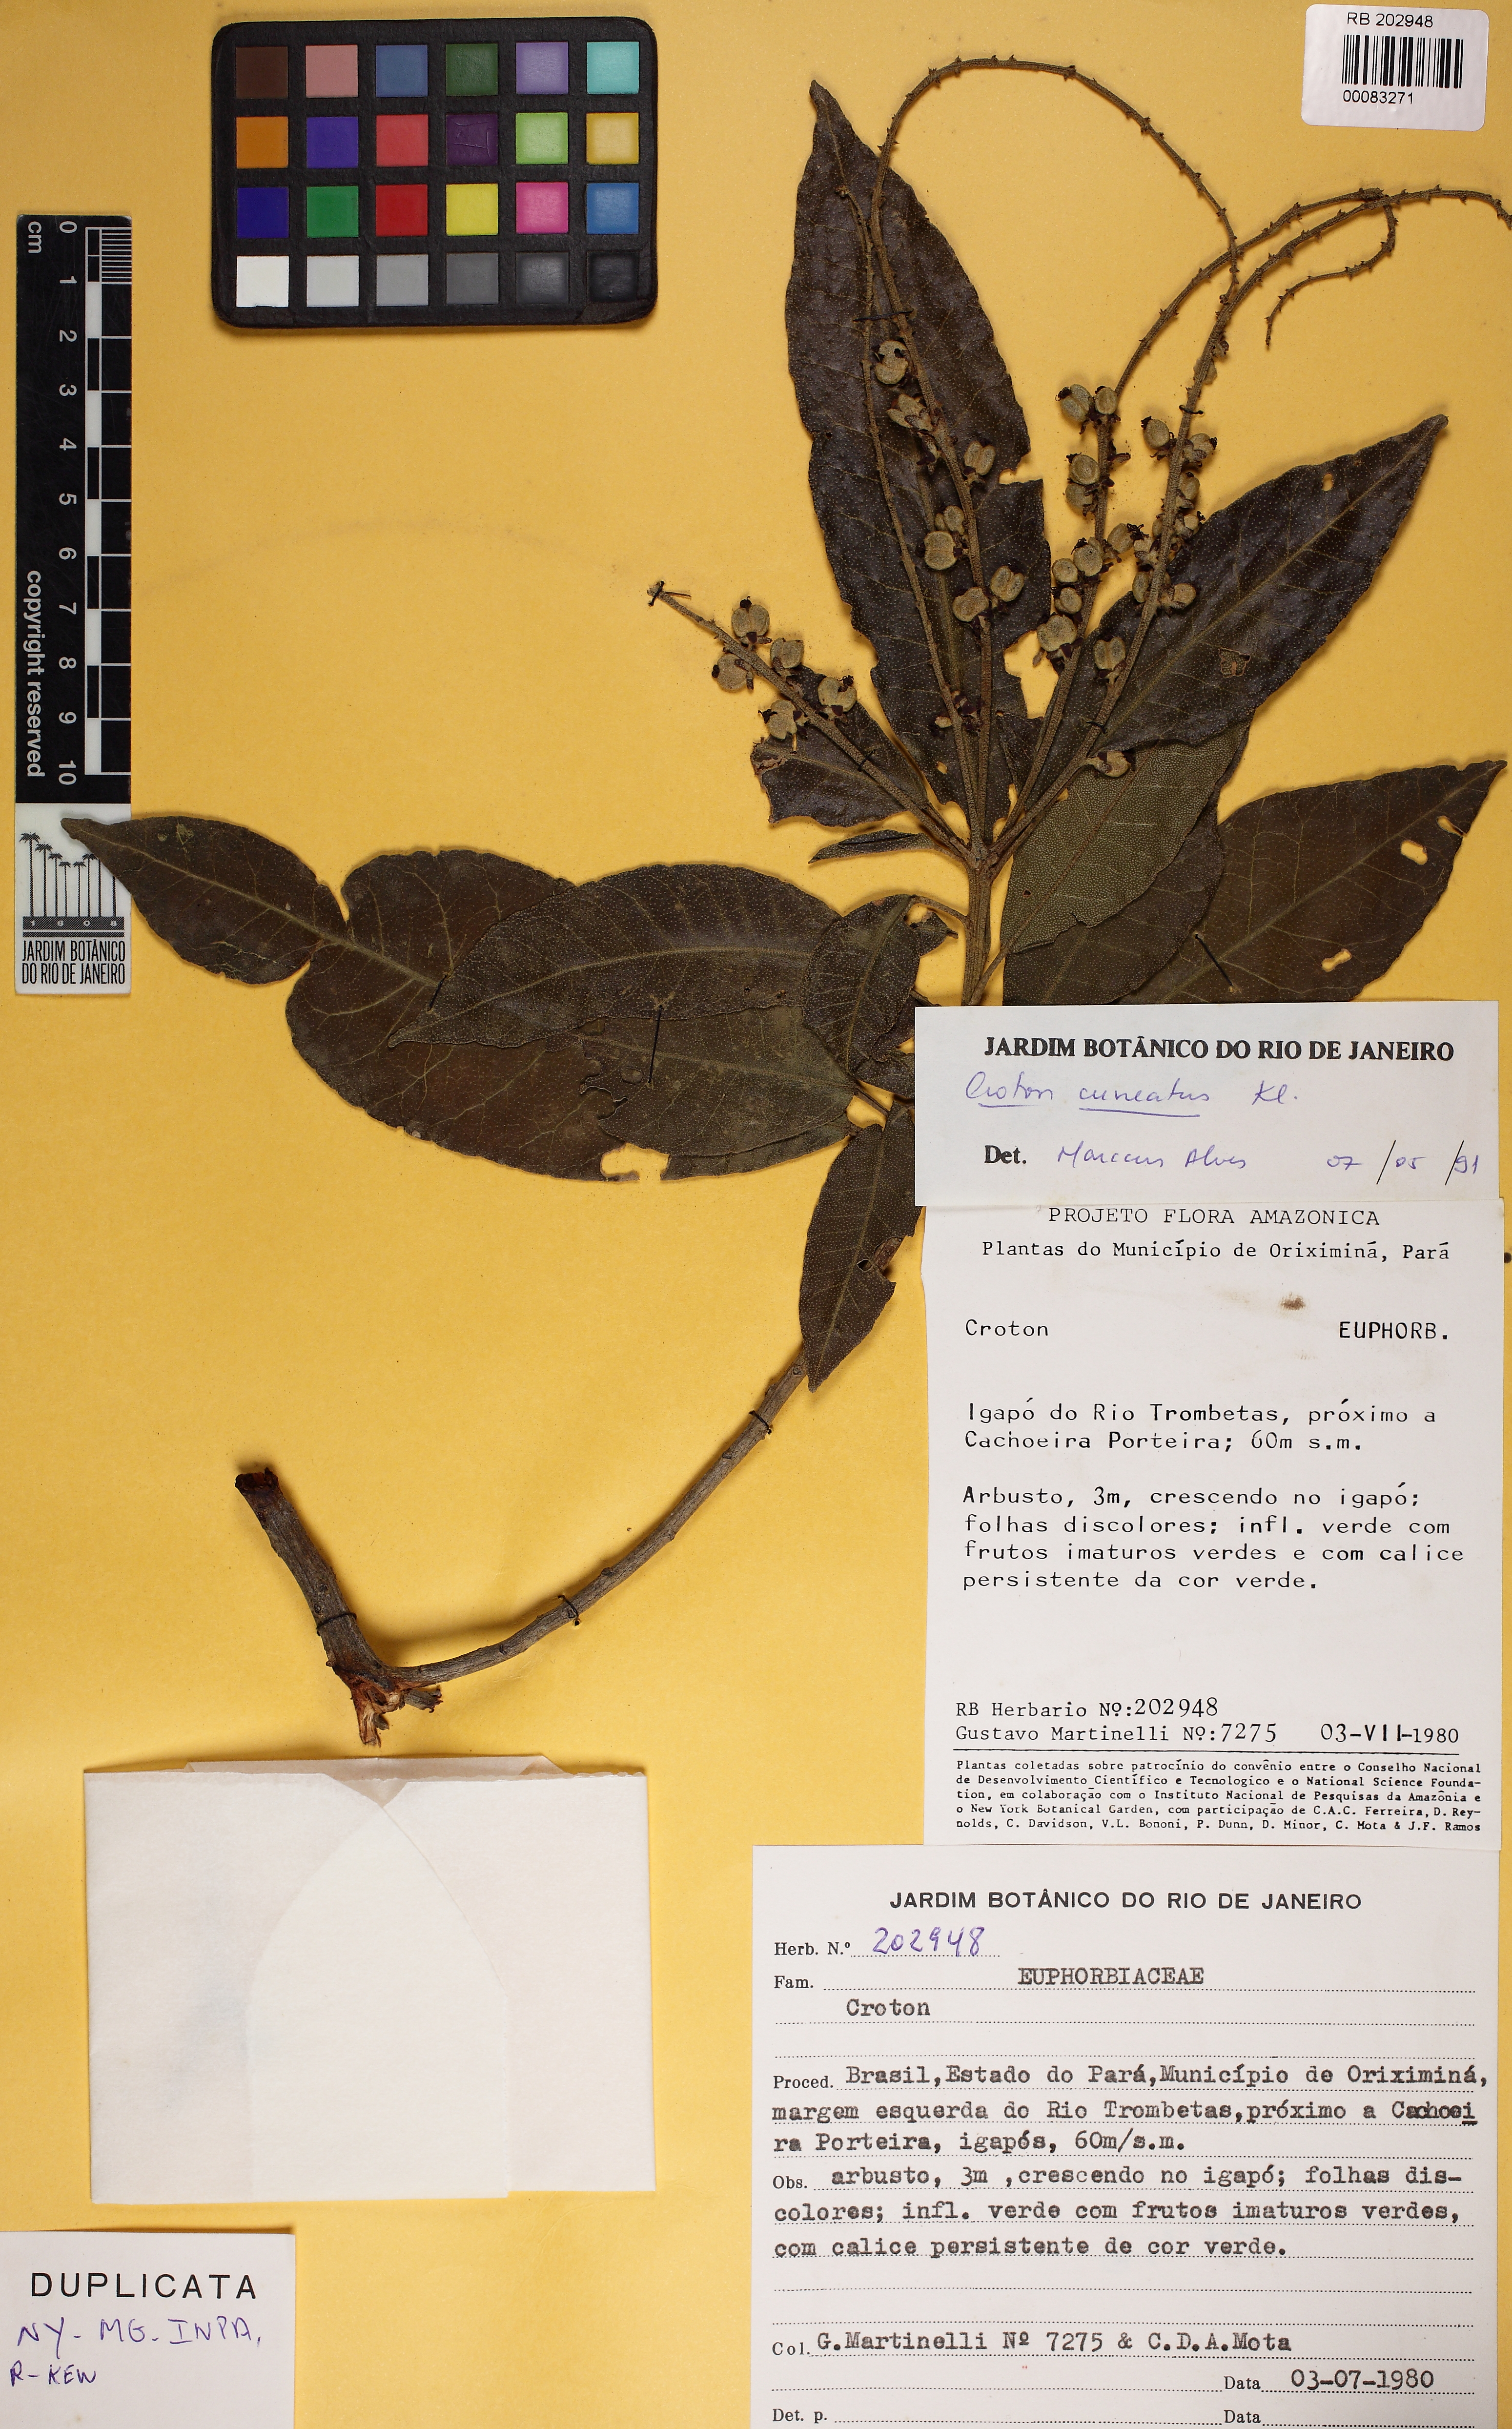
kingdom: Plantae
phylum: Tracheophyta
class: Magnoliopsida
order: Malpighiales
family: Euphorbiaceae
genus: Croton
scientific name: Croton cuneatus
